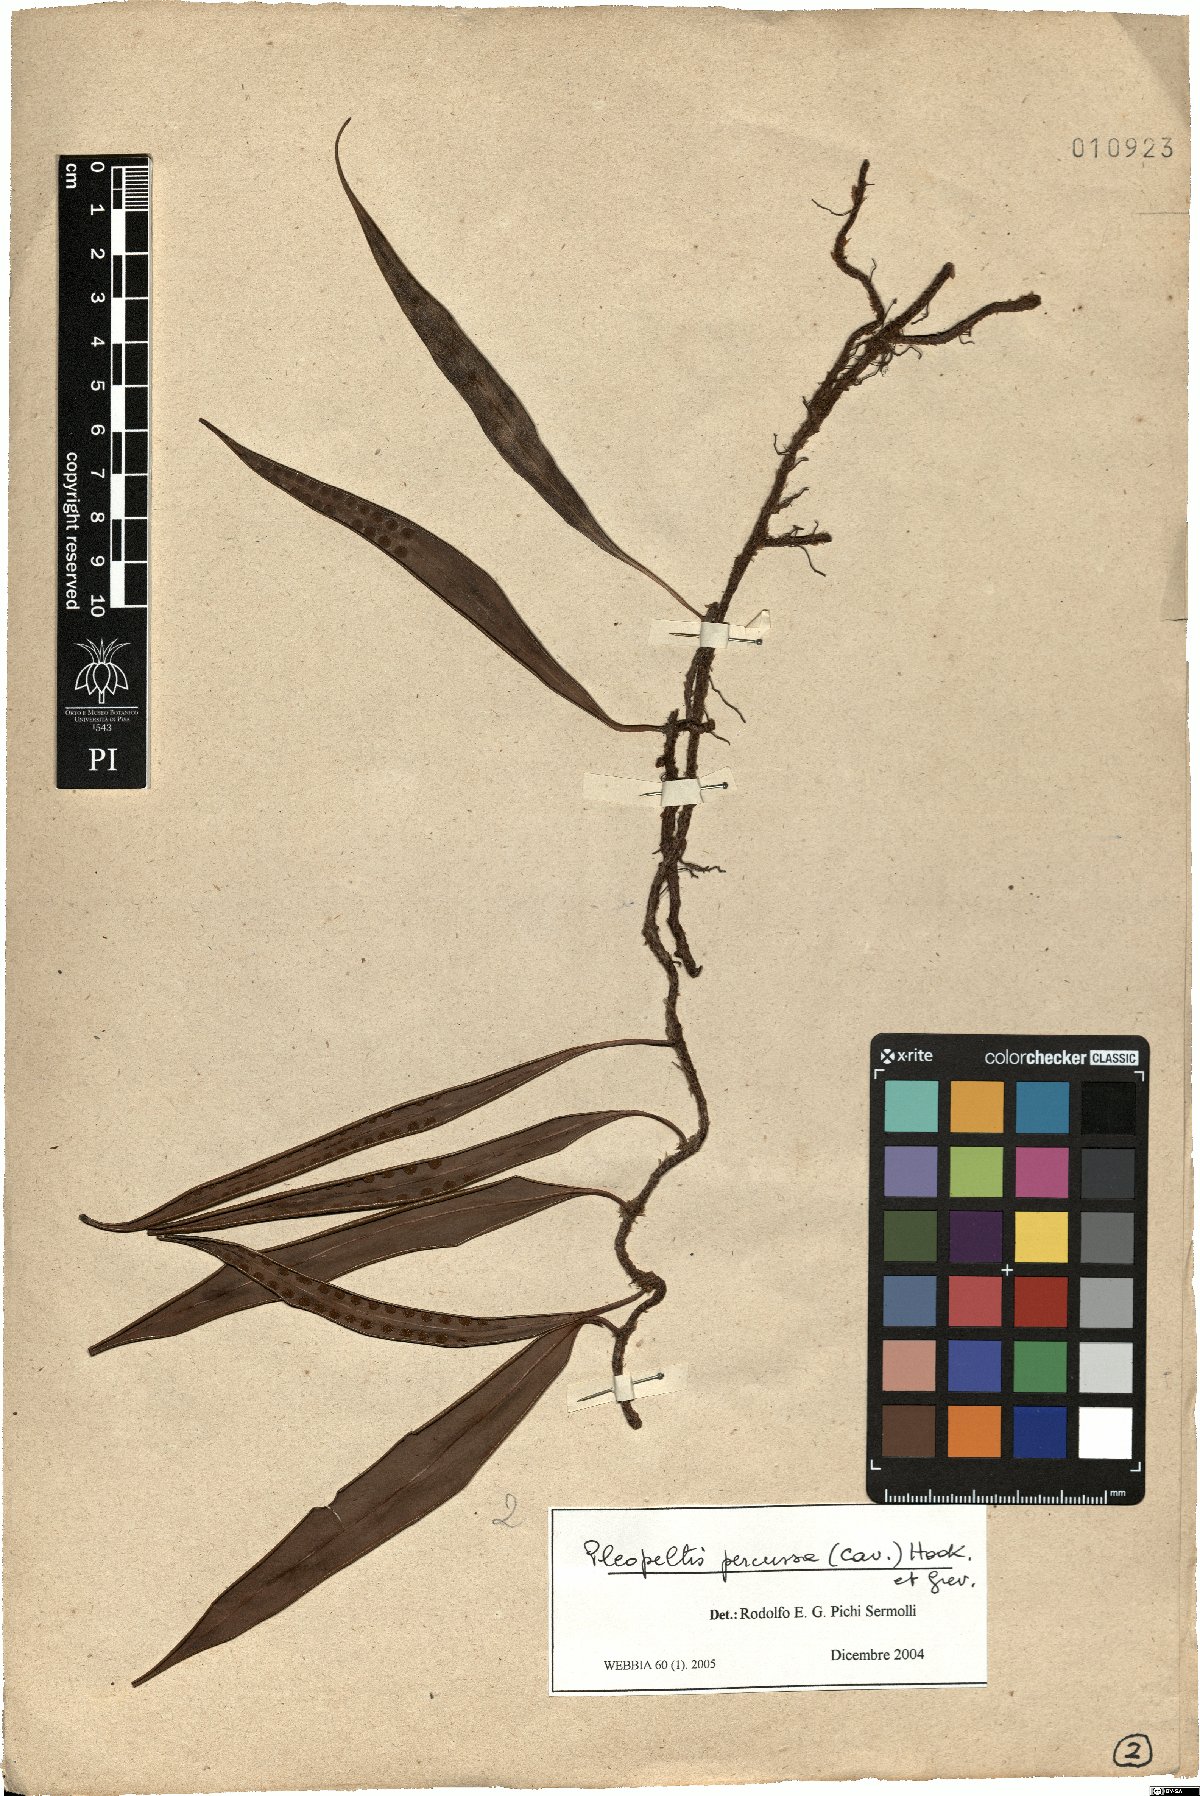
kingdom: Plantae
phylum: Tracheophyta
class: Polypodiopsida
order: Polypodiales
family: Polypodiaceae
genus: Microgramma
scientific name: Microgramma percussa
